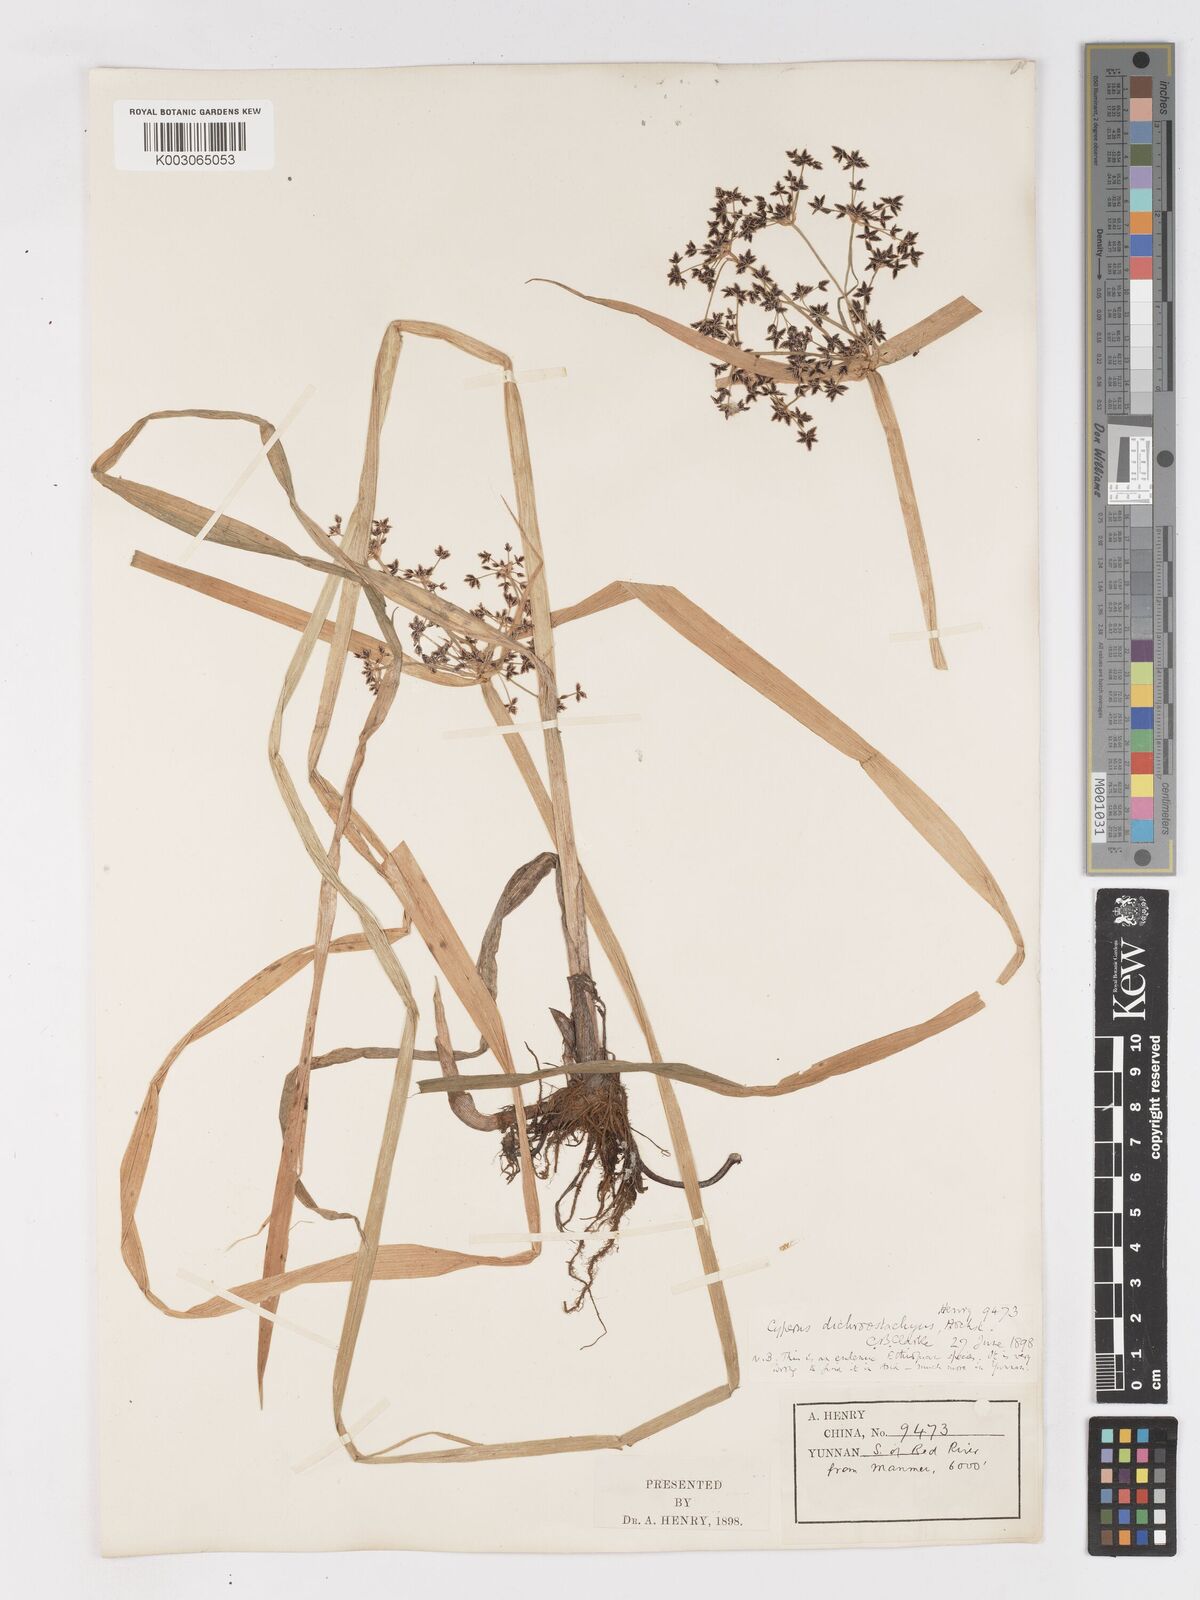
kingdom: Plantae
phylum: Tracheophyta
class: Liliopsida
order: Poales
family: Cyperaceae
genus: Cyperus
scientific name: Cyperus dichrostachyus
